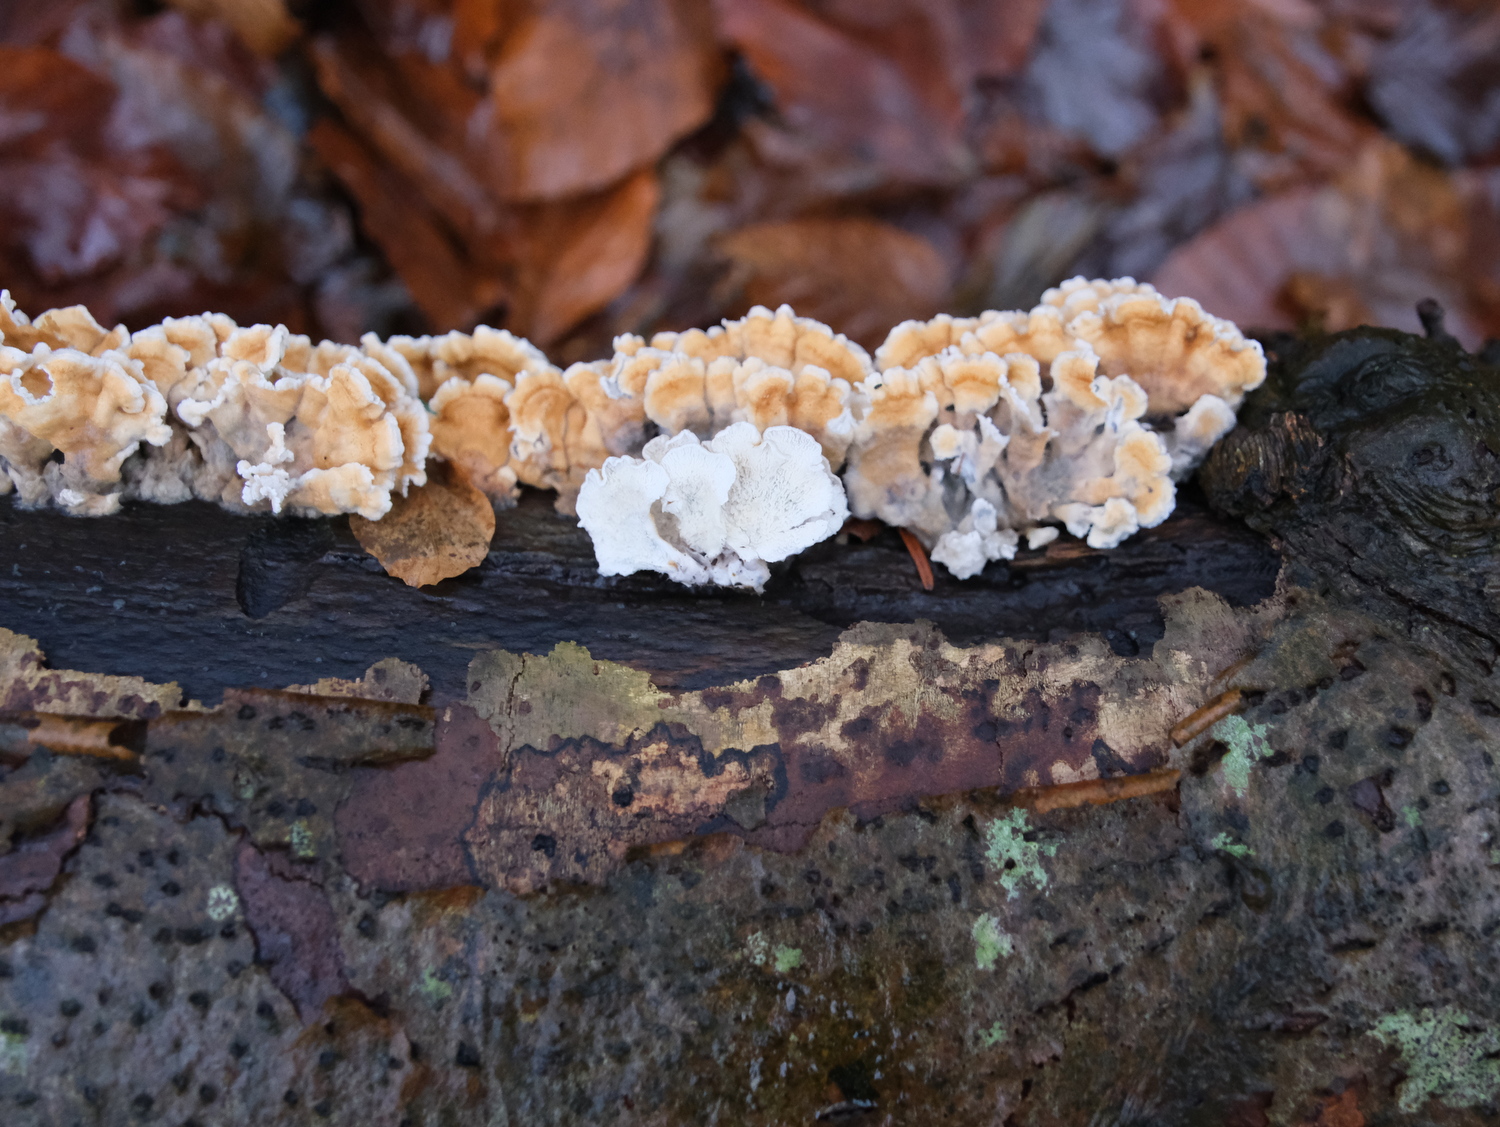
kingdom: Fungi
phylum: Basidiomycota
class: Agaricomycetes
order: Amylocorticiales
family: Amylocorticiaceae
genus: Plicaturopsis
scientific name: Plicaturopsis crispa
